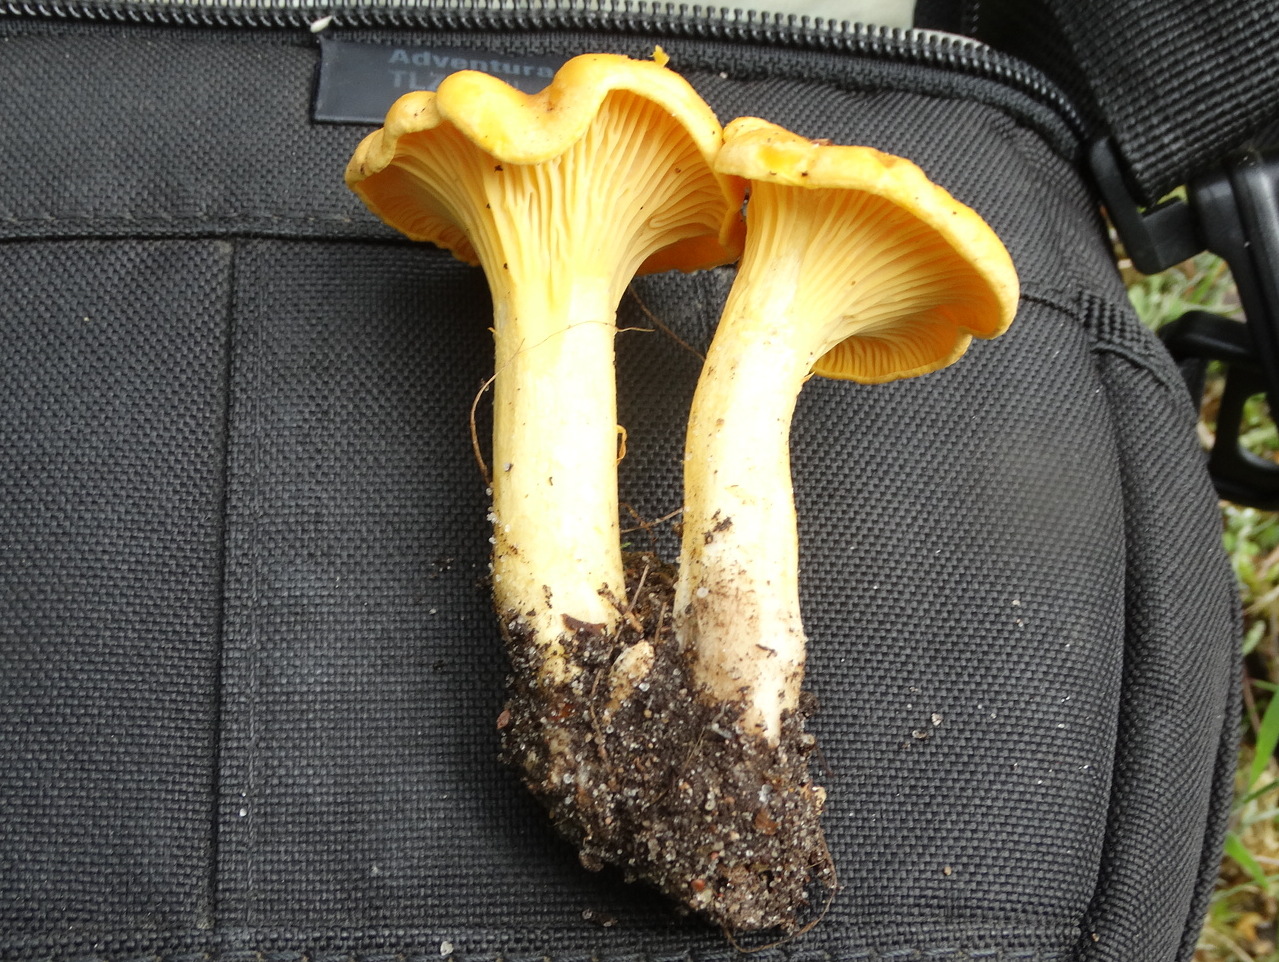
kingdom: Fungi
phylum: Basidiomycota
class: Agaricomycetes
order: Cantharellales
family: Hydnaceae
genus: Cantharellus
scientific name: Cantharellus cibarius
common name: almindelig kantarel
